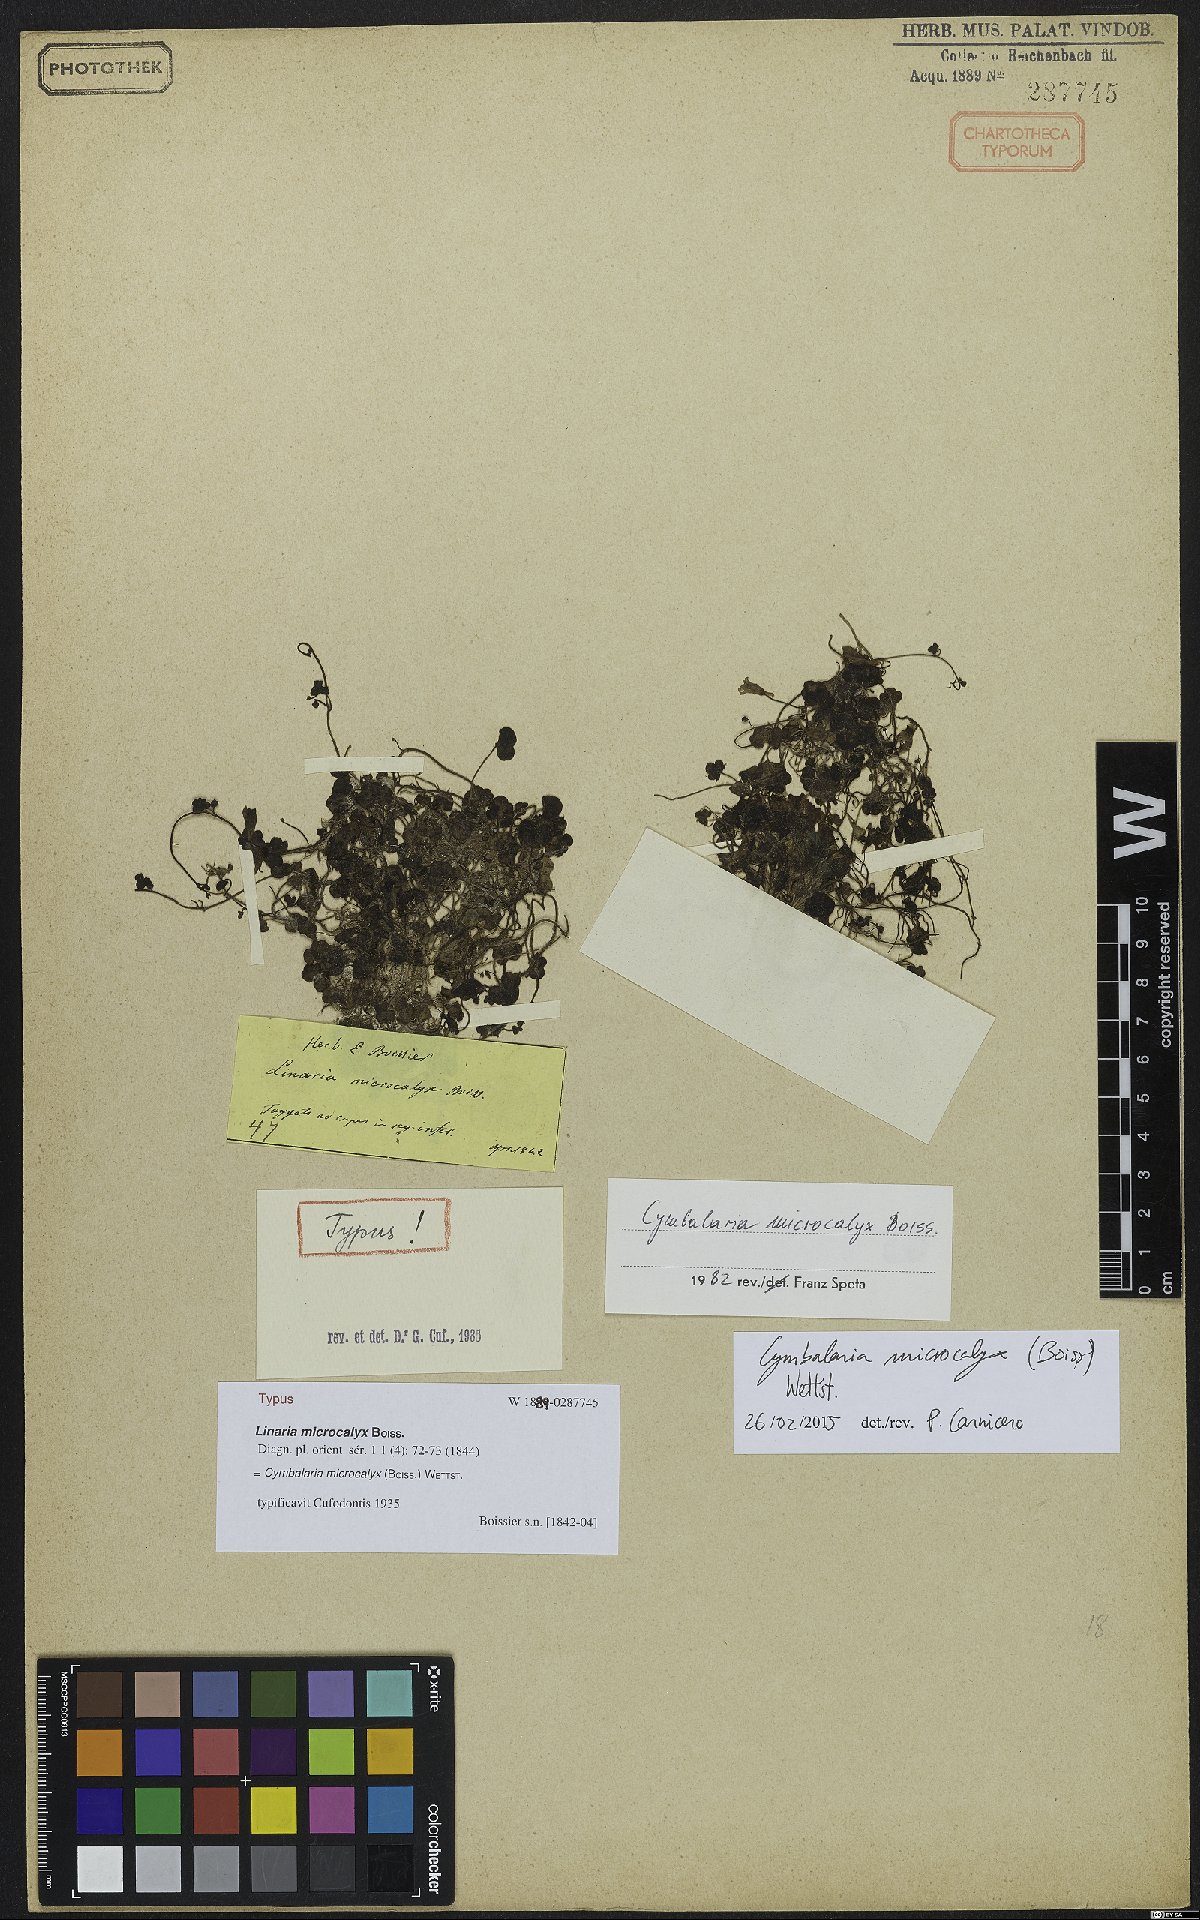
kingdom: Plantae
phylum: Tracheophyta
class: Magnoliopsida
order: Lamiales
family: Plantaginaceae
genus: Cymbalaria
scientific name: Cymbalaria microcalyx
